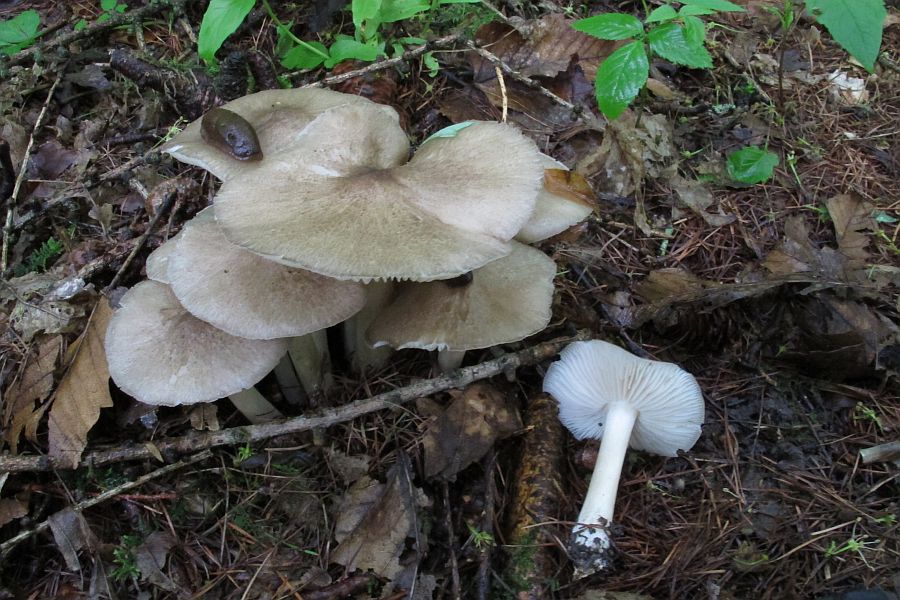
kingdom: Fungi
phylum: Basidiomycota
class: Agaricomycetes
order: Agaricales
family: Tricholomataceae
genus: Megacollybia
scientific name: Megacollybia platyphylla
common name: bredbladet væbnerhat
